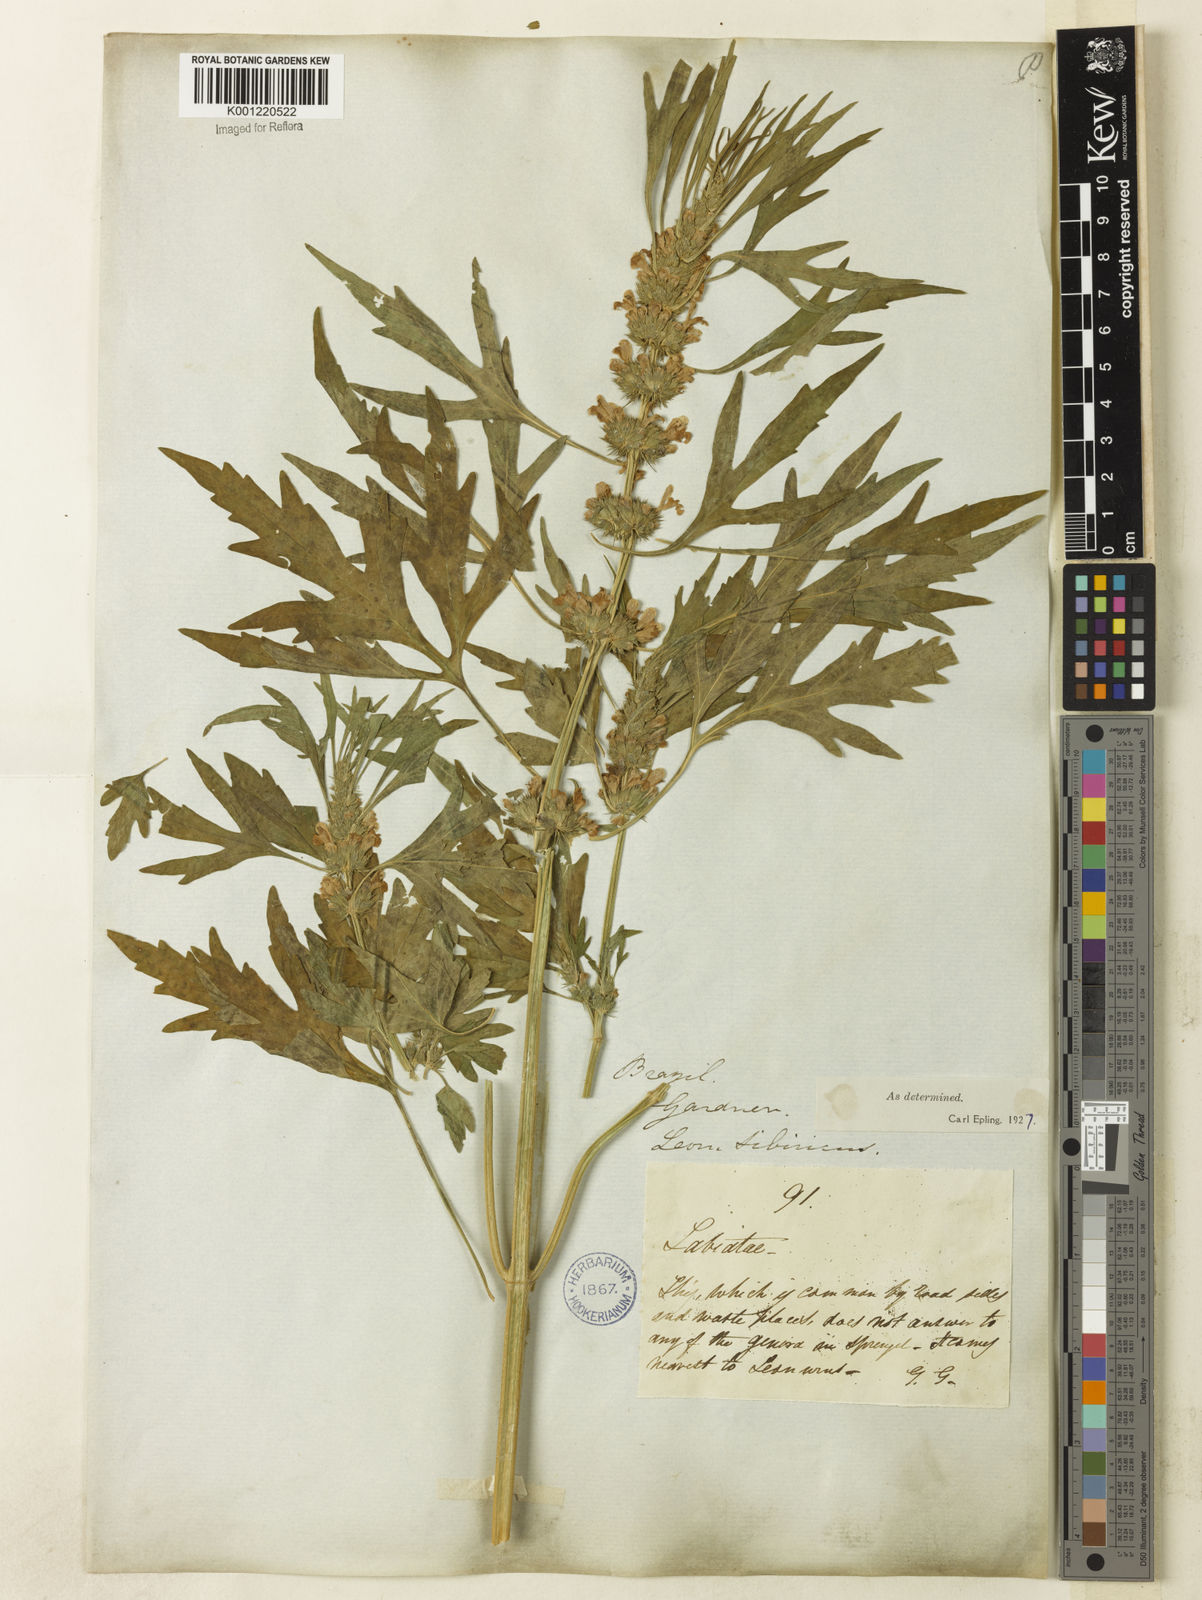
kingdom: Plantae
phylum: Tracheophyta
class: Magnoliopsida
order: Lamiales
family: Lamiaceae
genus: Leonurus
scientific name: Leonurus japonicus
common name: Honeyweed
